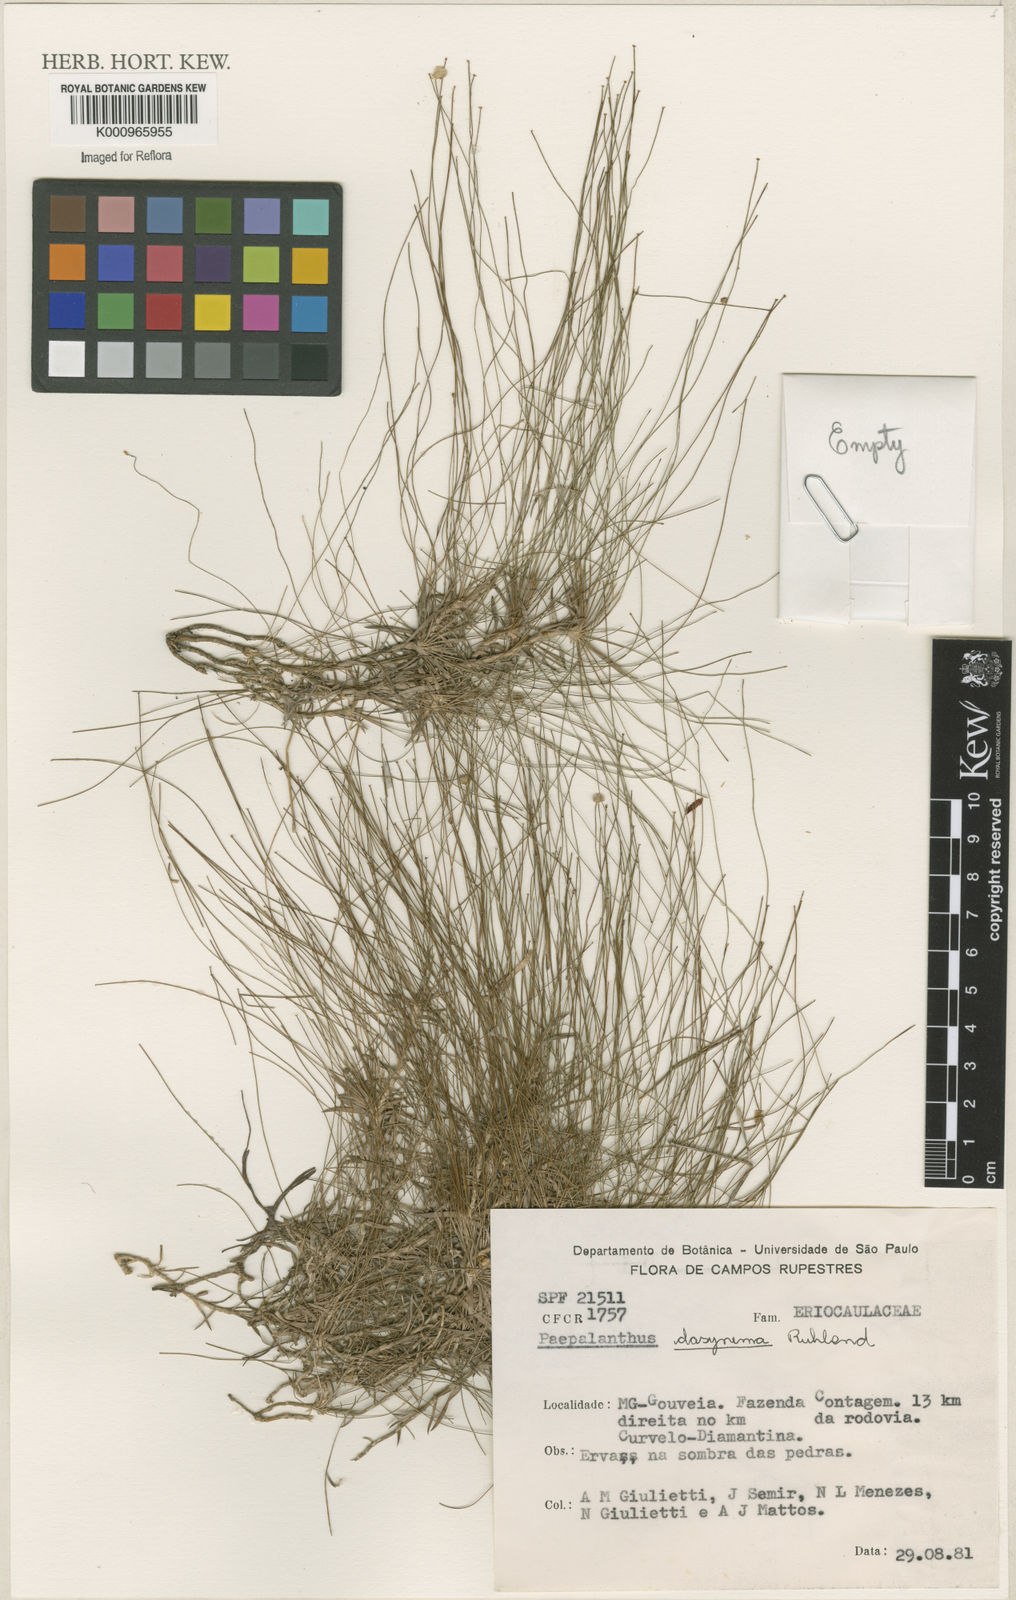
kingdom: Plantae
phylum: Tracheophyta
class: Liliopsida
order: Poales
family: Eriocaulaceae
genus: Paepalanthus
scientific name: Paepalanthus dasynema
